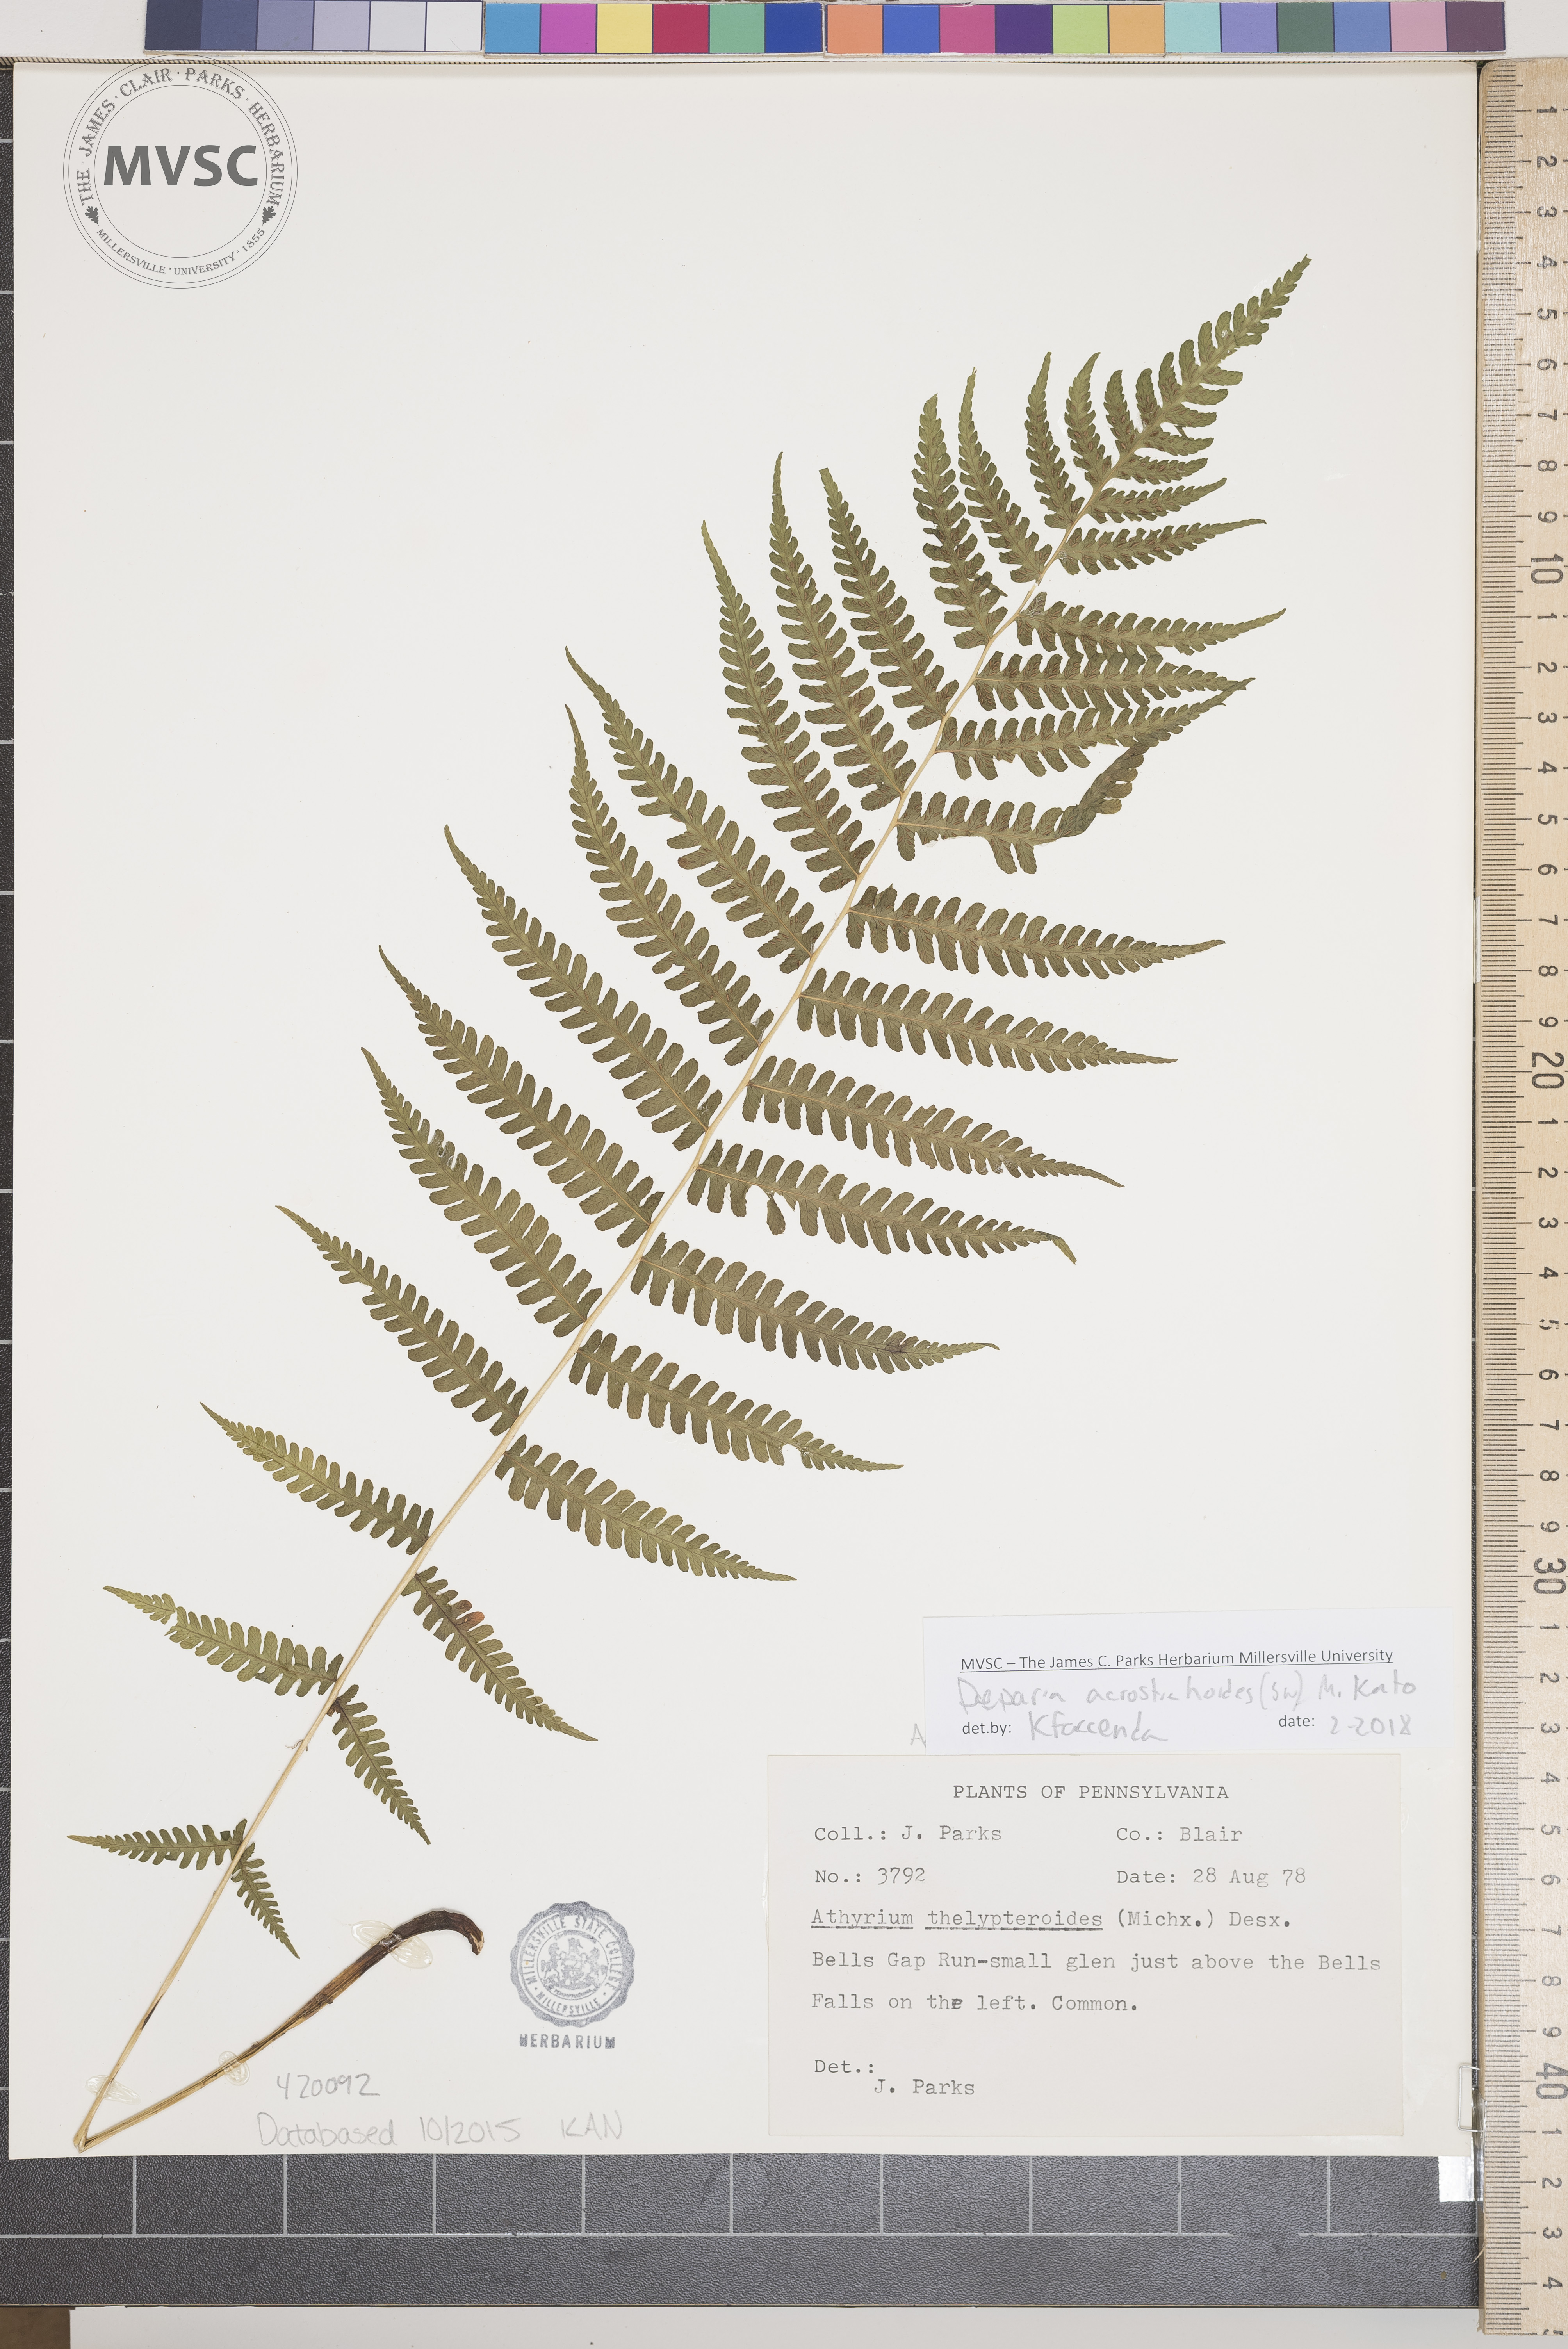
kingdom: Plantae
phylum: Tracheophyta
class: Polypodiopsida
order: Polypodiales
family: Athyriaceae
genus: Deparia
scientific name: Deparia acrostichoides
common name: Silver false spleenwort
